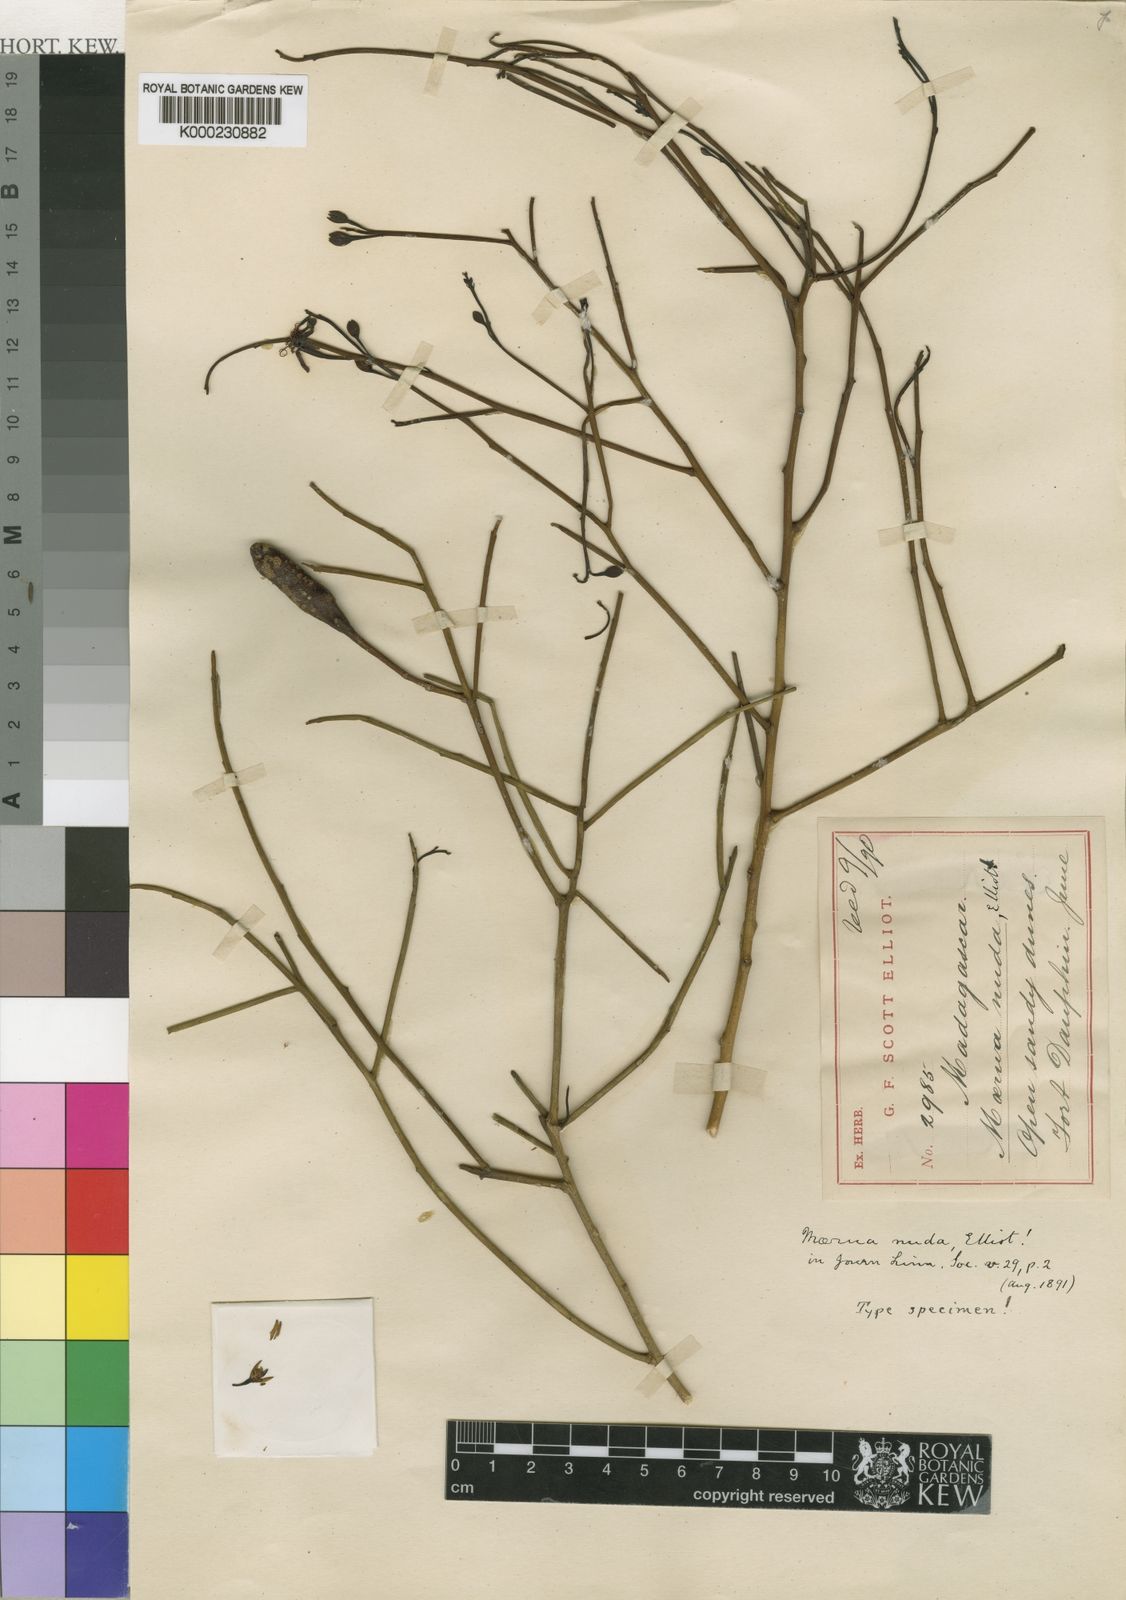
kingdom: Plantae
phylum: Tracheophyta
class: Magnoliopsida
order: Brassicales
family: Capparaceae
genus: Maerua
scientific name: Maerua nuda
